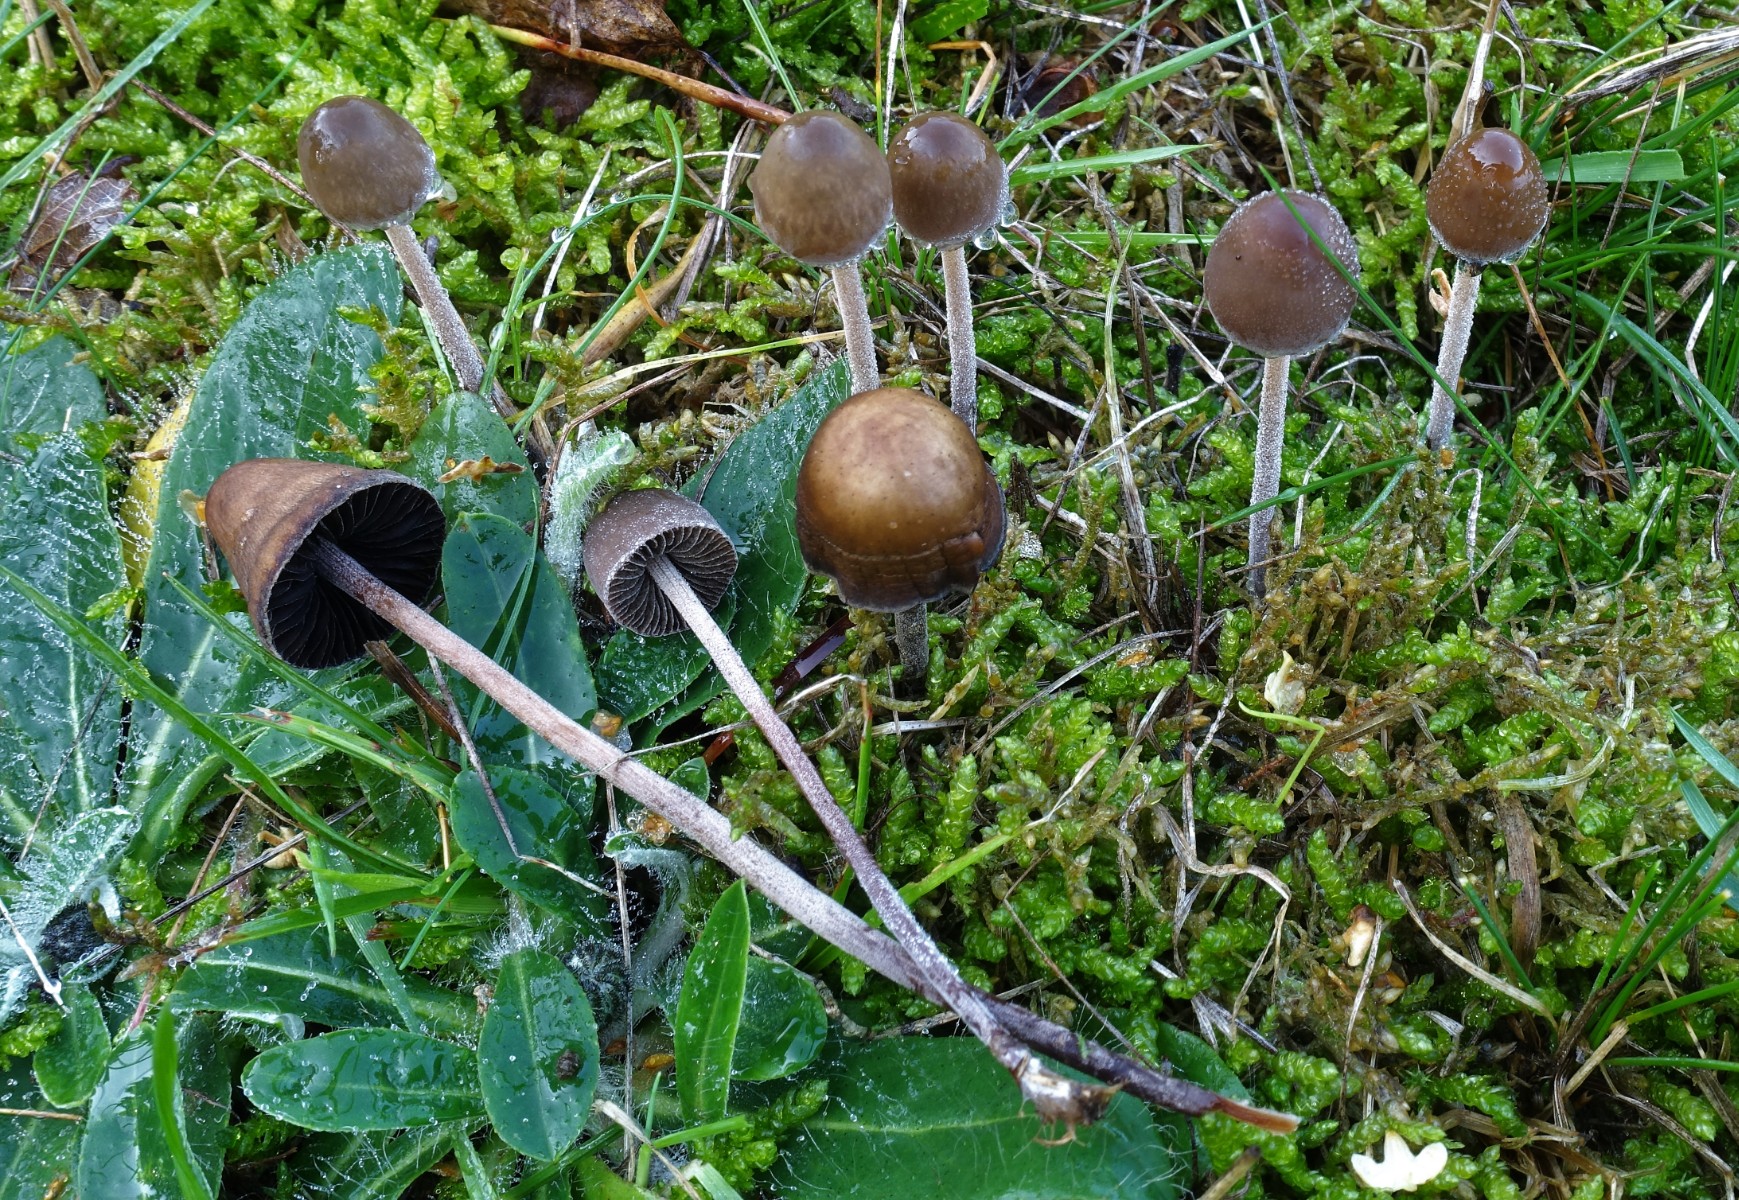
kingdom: Fungi
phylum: Basidiomycota
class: Agaricomycetes
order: Agaricales
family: Bolbitiaceae
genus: Panaeolus
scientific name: Panaeolus acuminatus
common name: høj glanshat
